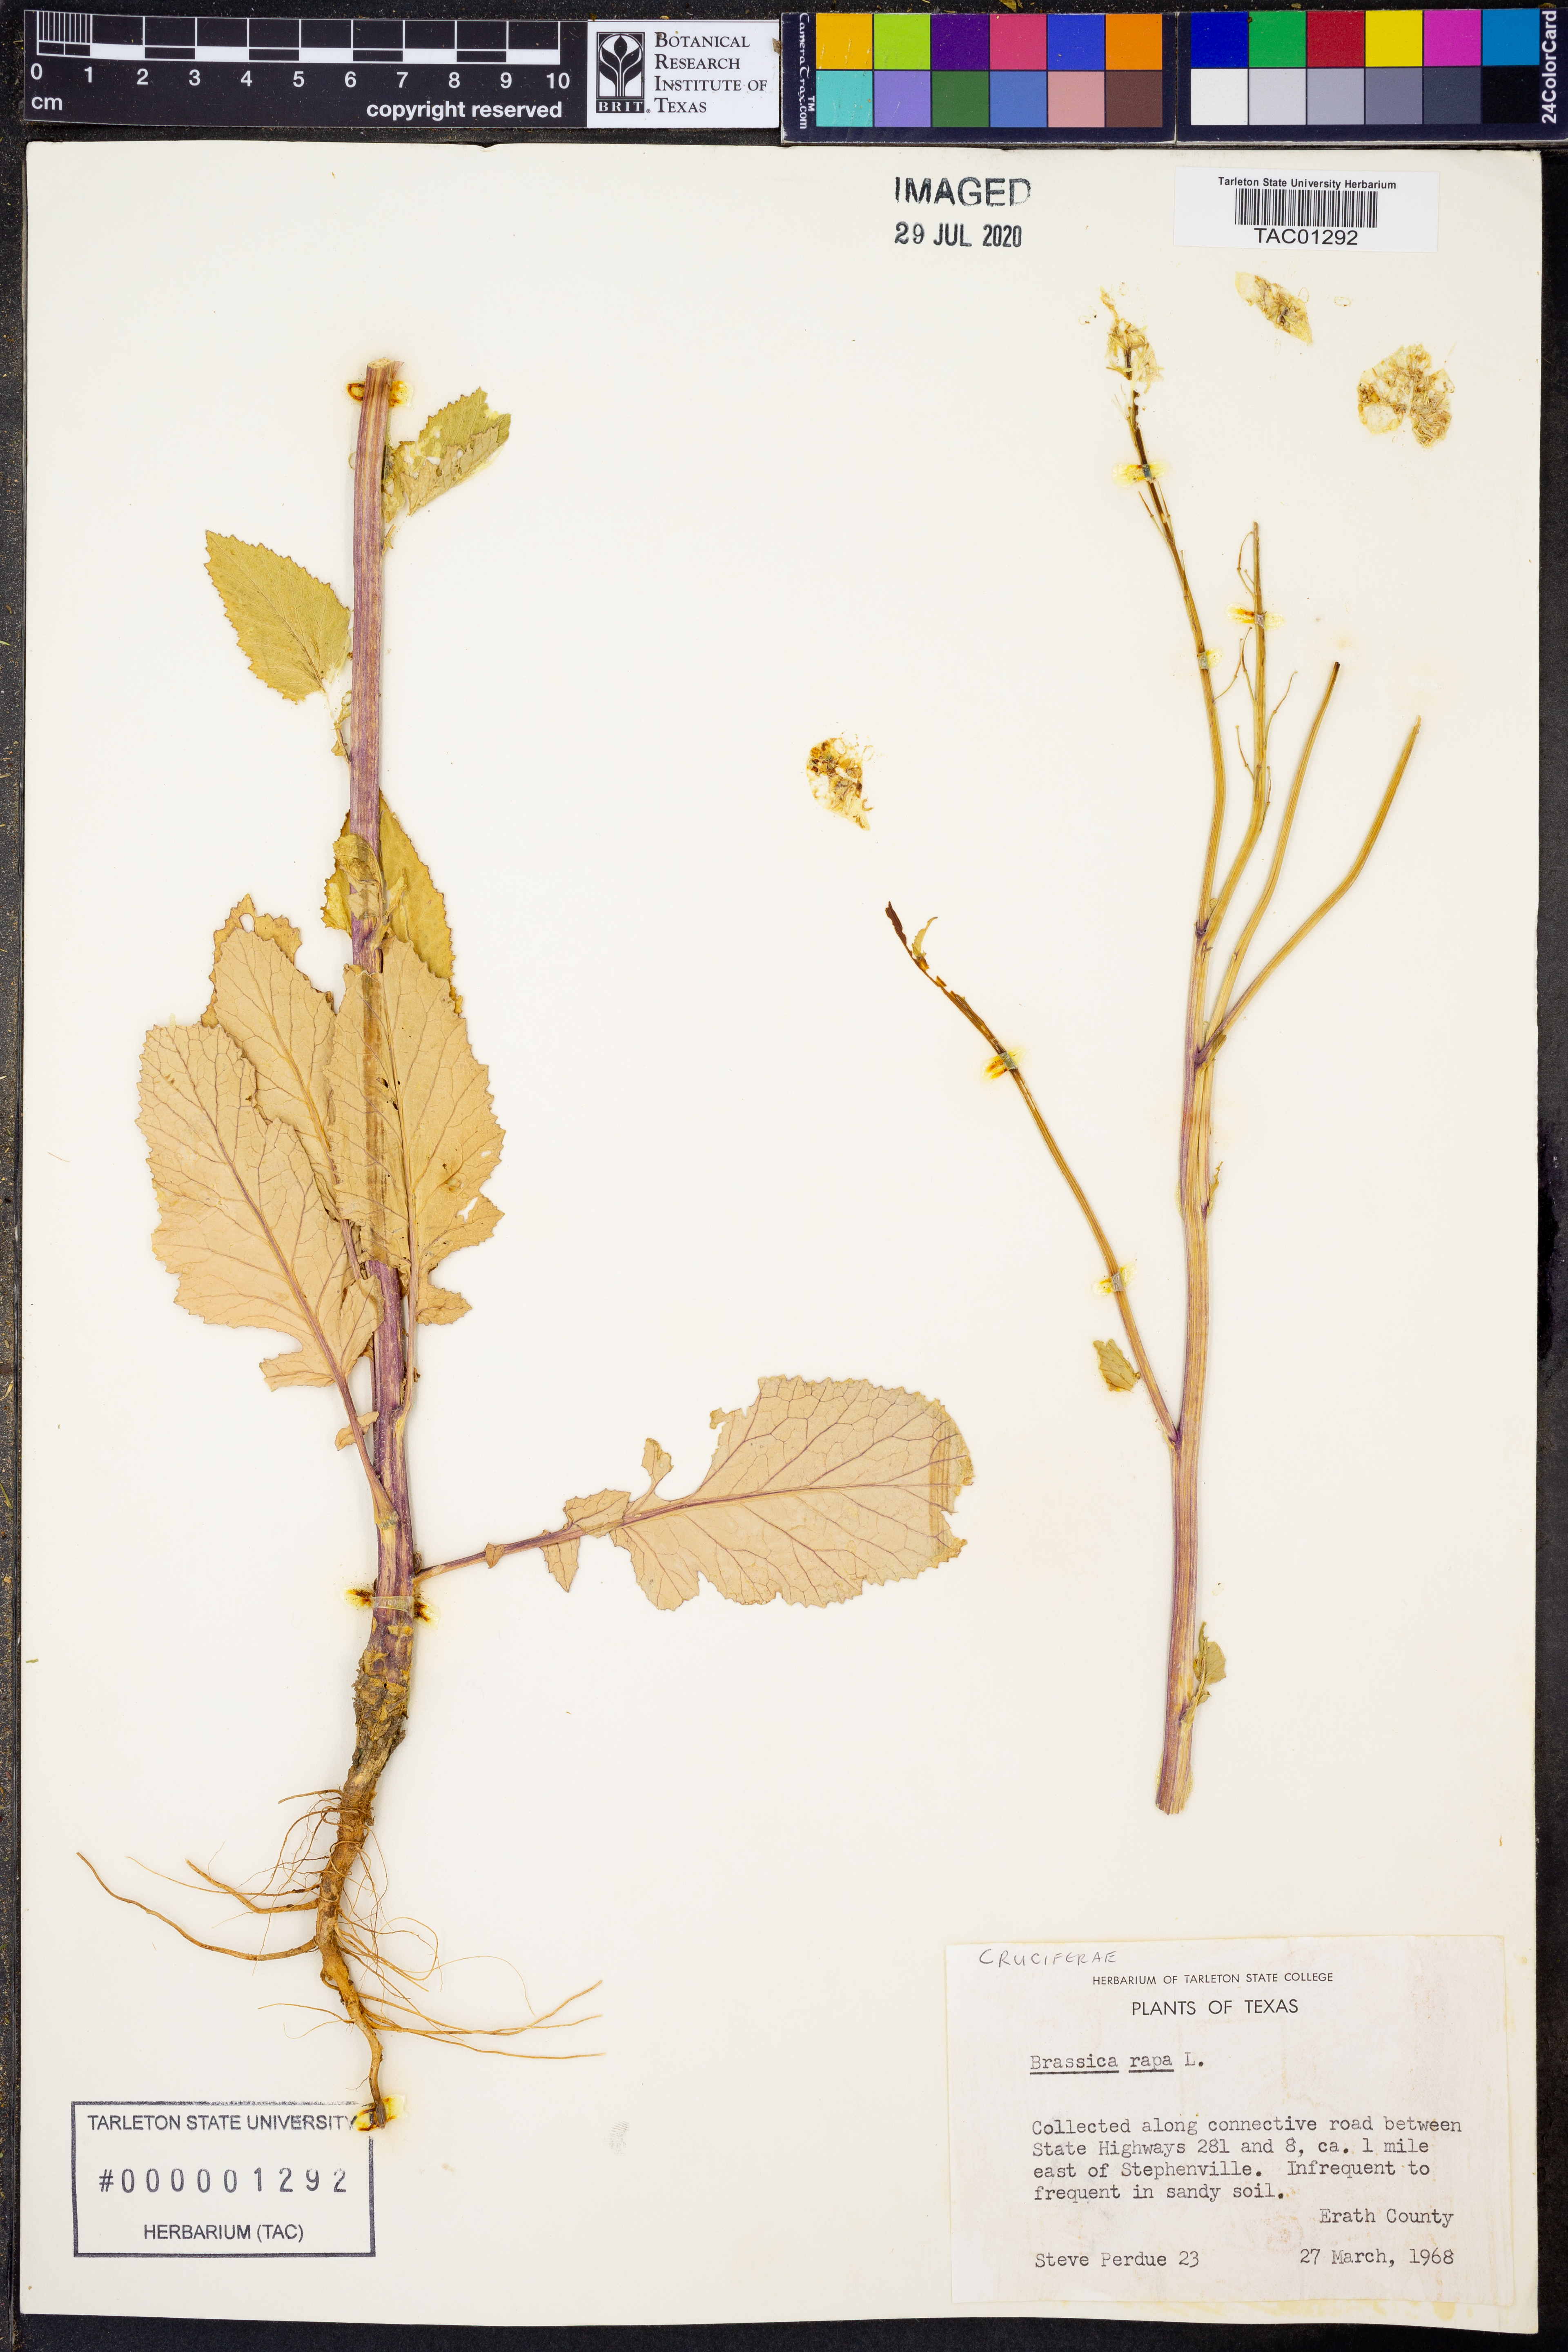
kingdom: Plantae
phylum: Tracheophyta
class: Magnoliopsida
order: Brassicales
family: Brassicaceae
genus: Brassica
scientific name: Brassica rapa
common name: Field mustard
